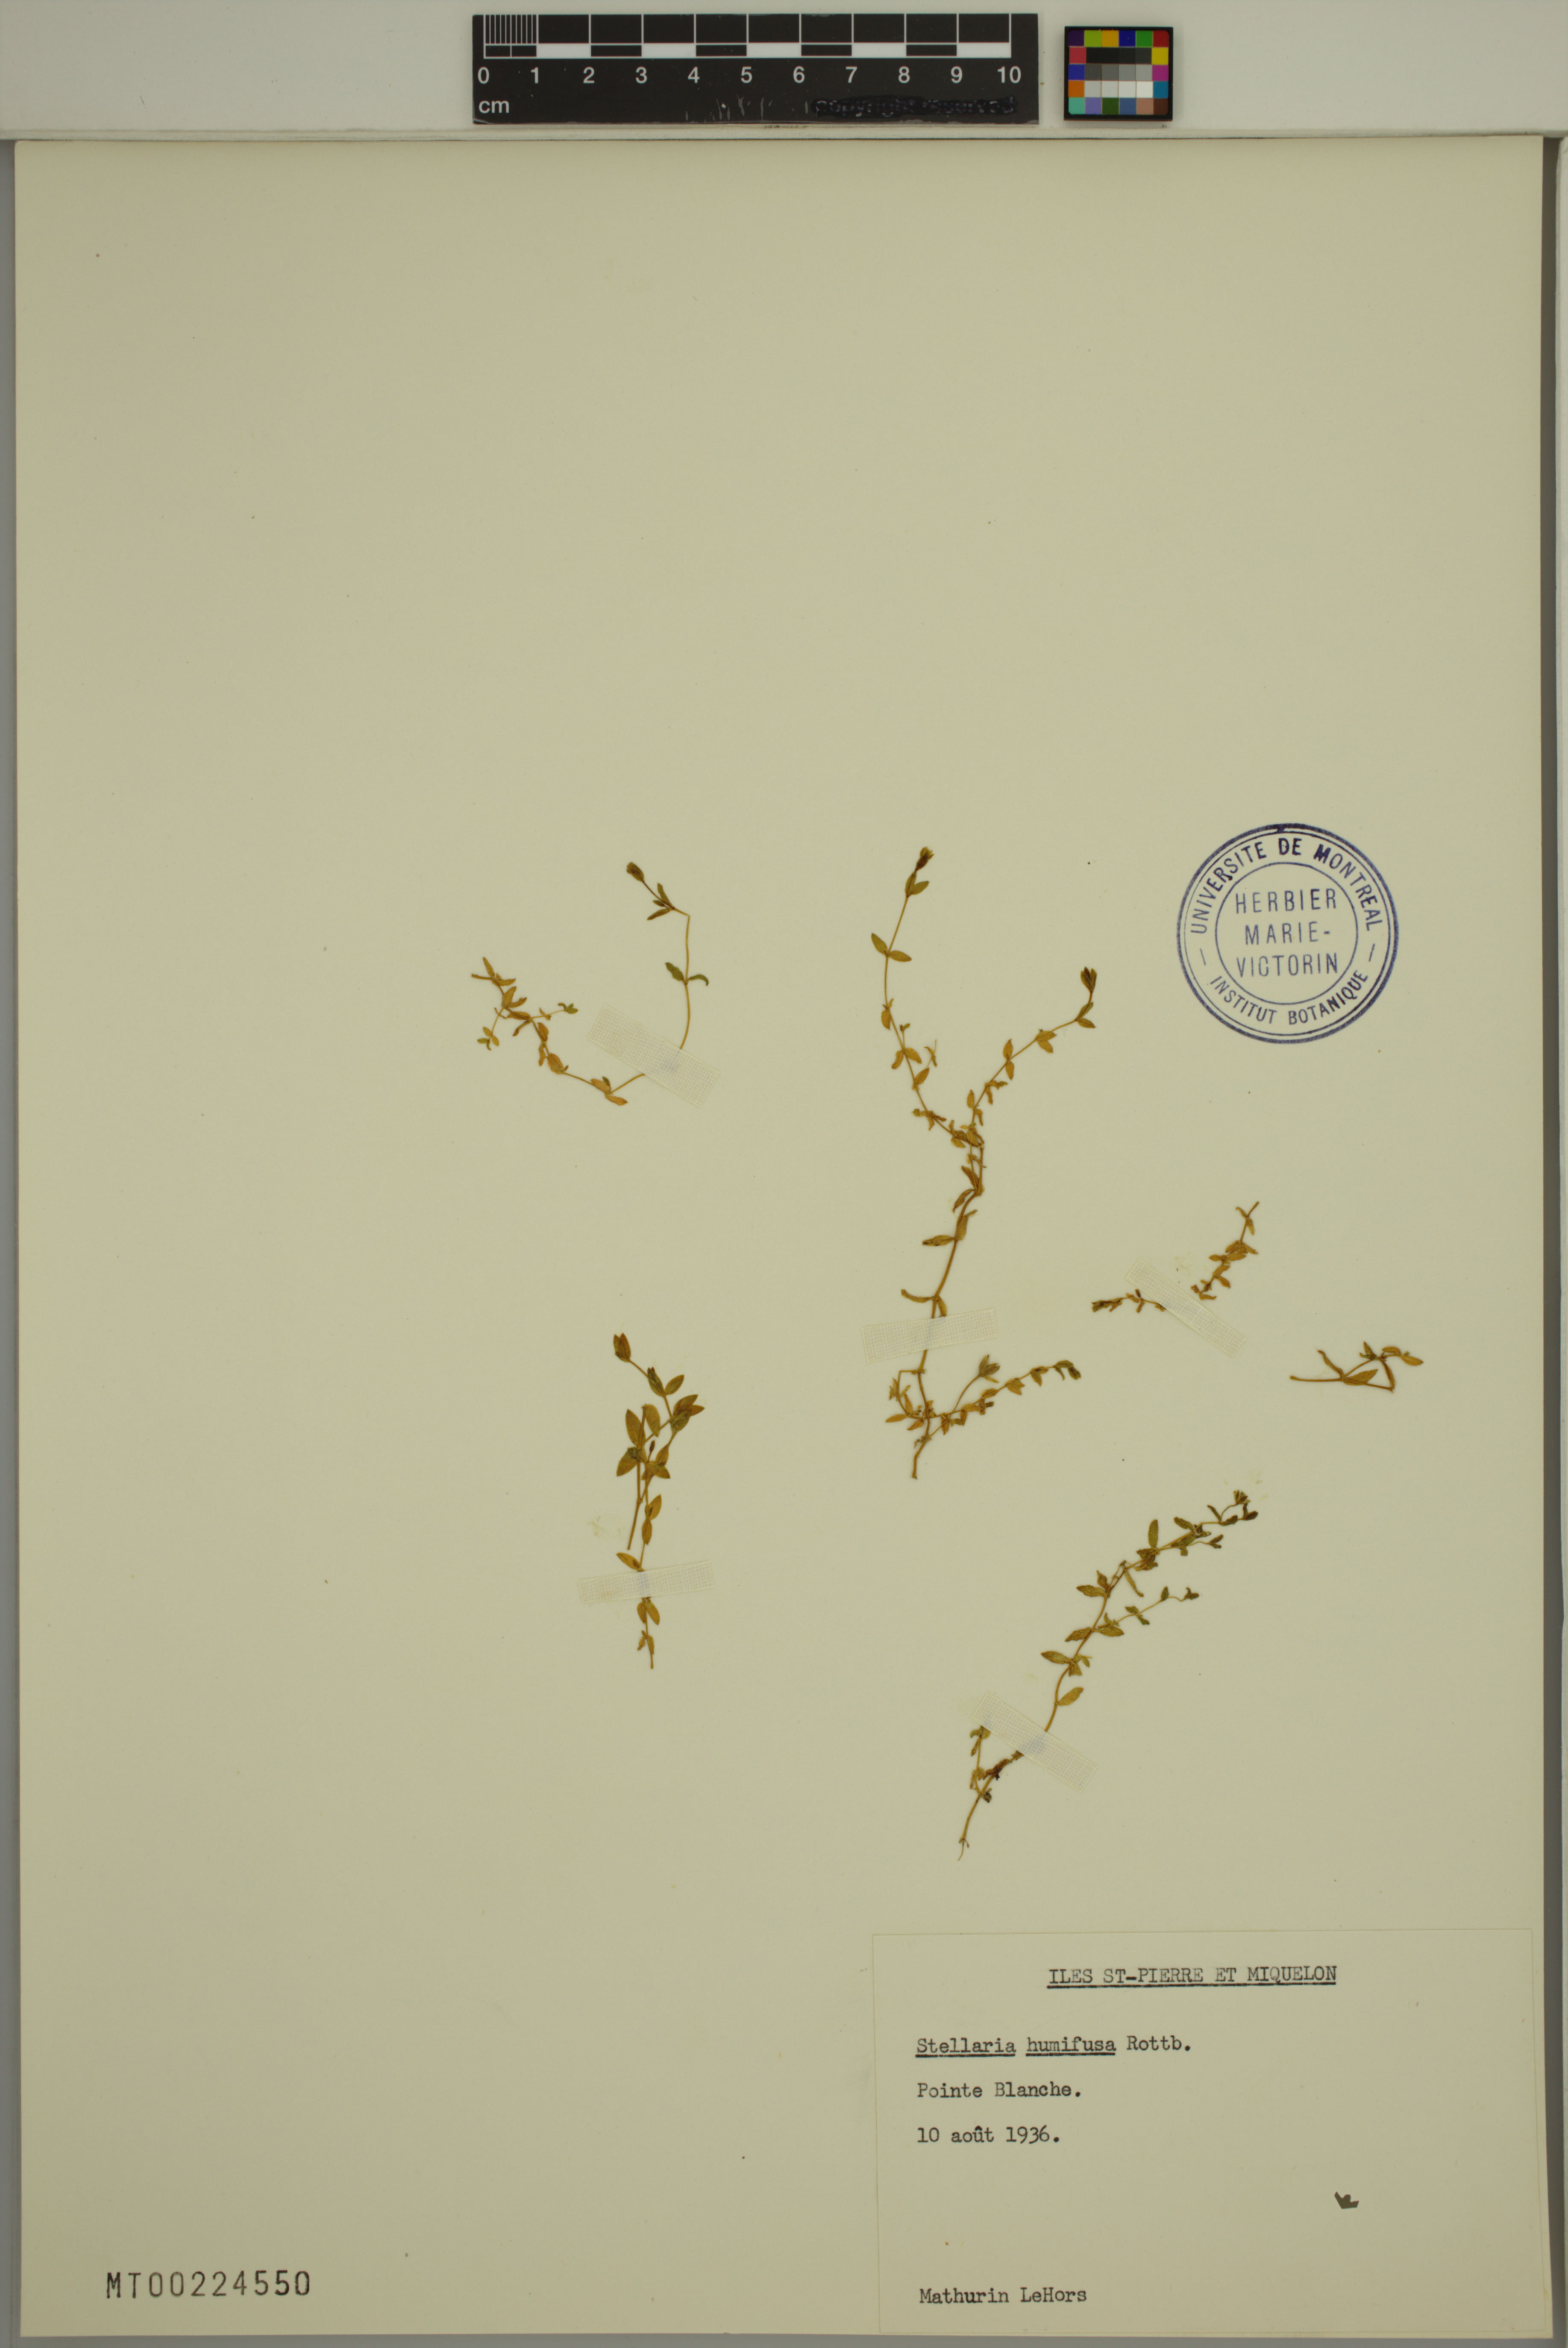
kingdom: Plantae
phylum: Tracheophyta
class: Magnoliopsida
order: Caryophyllales
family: Caryophyllaceae
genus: Stellaria
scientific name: Stellaria humifusa
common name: Creeping starwort
